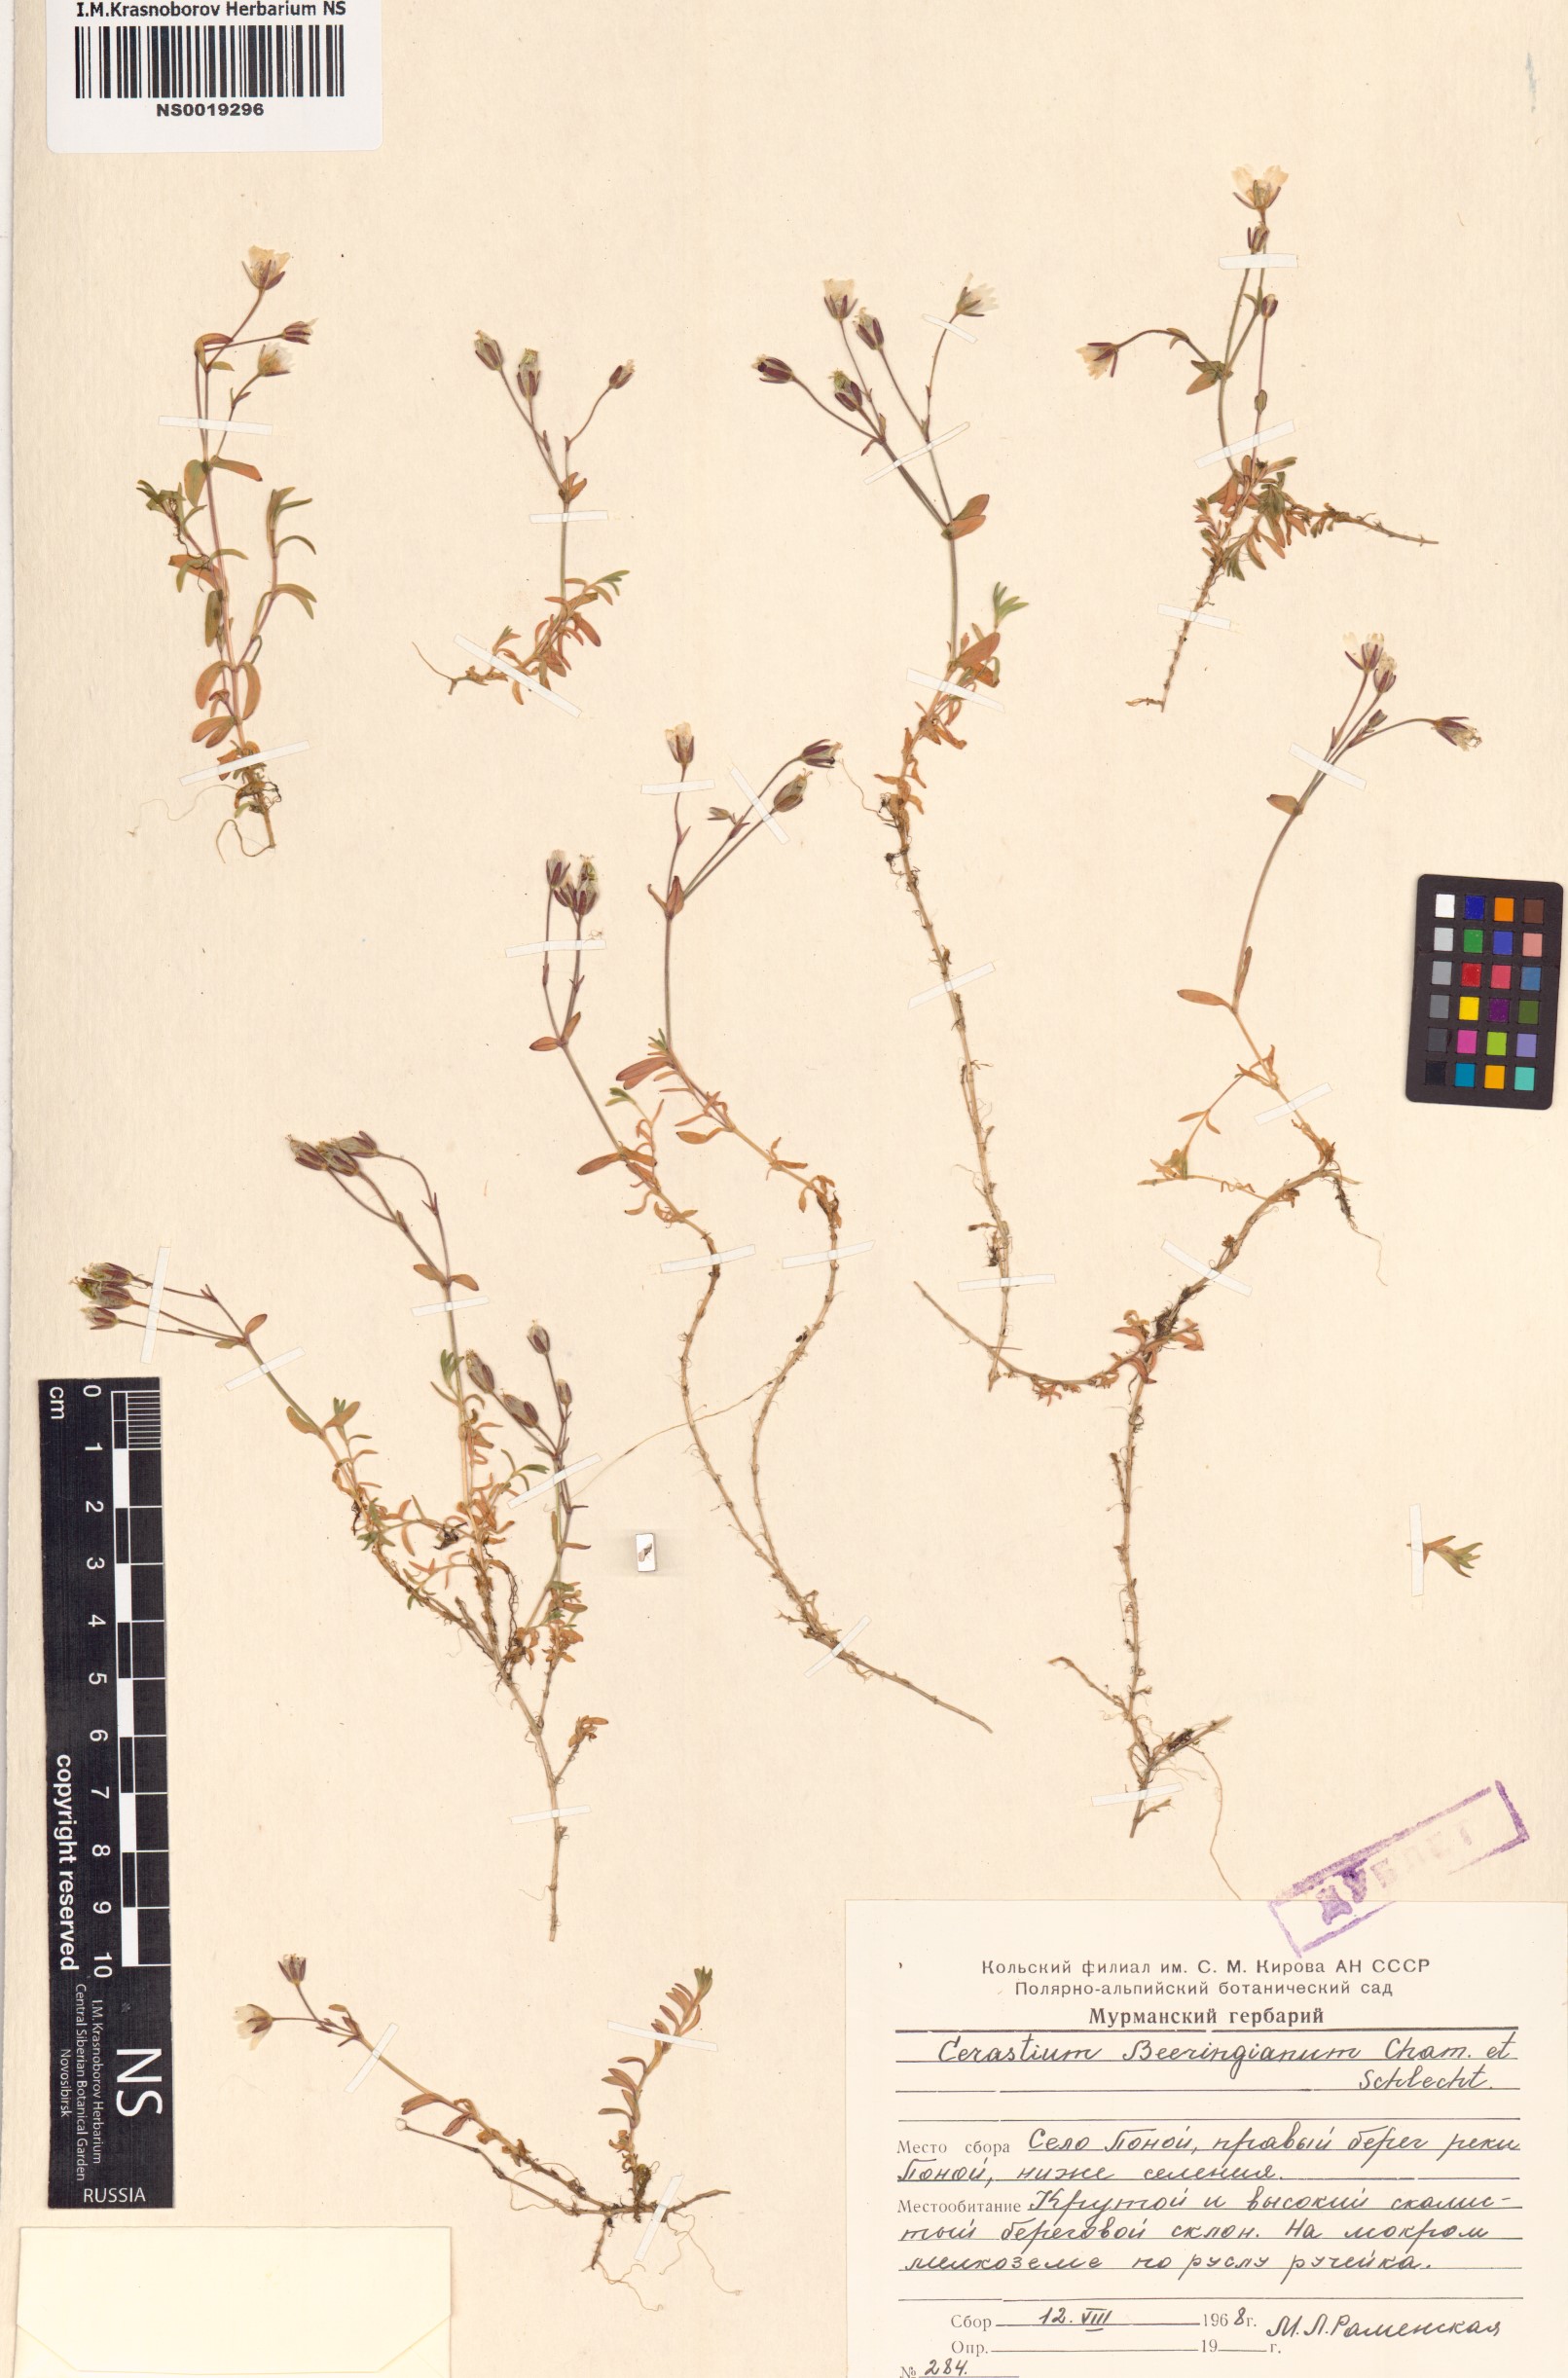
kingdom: Plantae
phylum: Tracheophyta
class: Magnoliopsida
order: Caryophyllales
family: Caryophyllaceae
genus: Cerastium
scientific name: Cerastium beeringianum
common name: Bering mouse-ear chickweed
